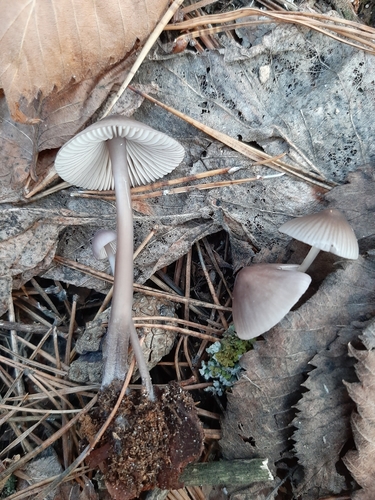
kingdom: Fungi
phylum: Basidiomycota
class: Agaricomycetes
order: Agaricales
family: Mycenaceae
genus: Mycena
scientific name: Mycena purpureofusca
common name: Purple edge bonnet
